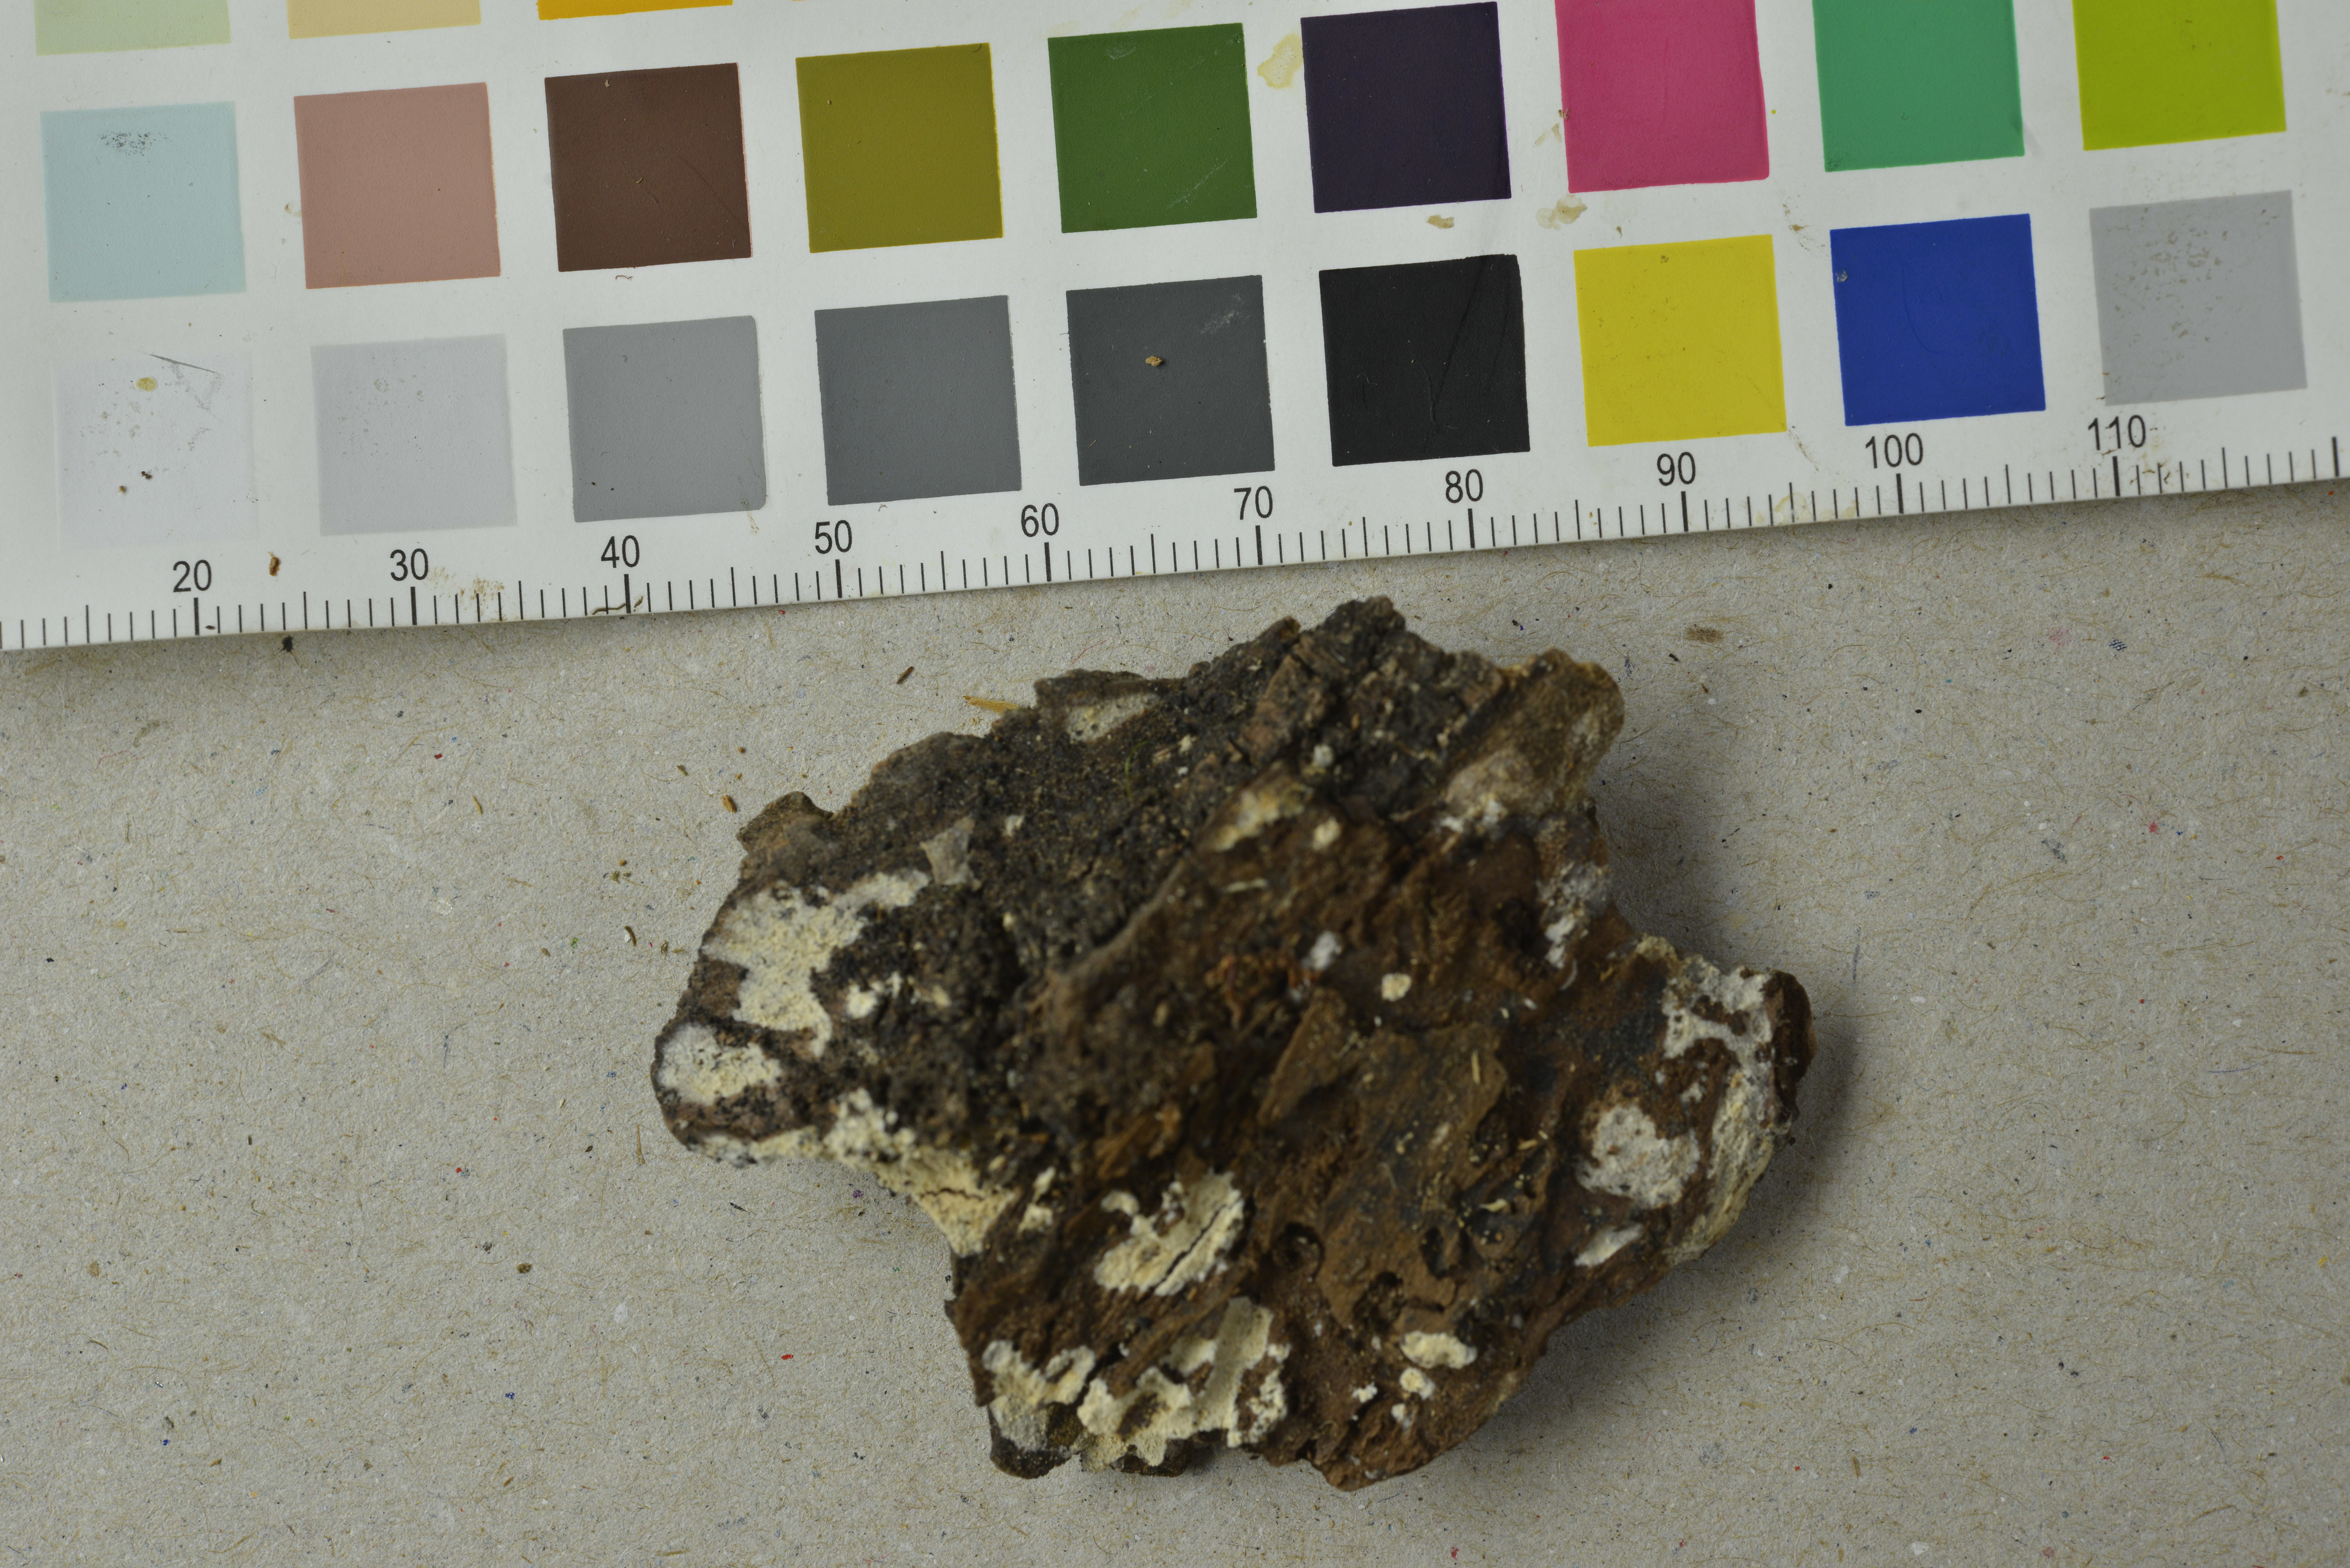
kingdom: Fungi
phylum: Basidiomycota
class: Agaricomycetes
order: Corticiales
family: Corticiaceae
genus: Lyomyces
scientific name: Lyomyces crustosus
